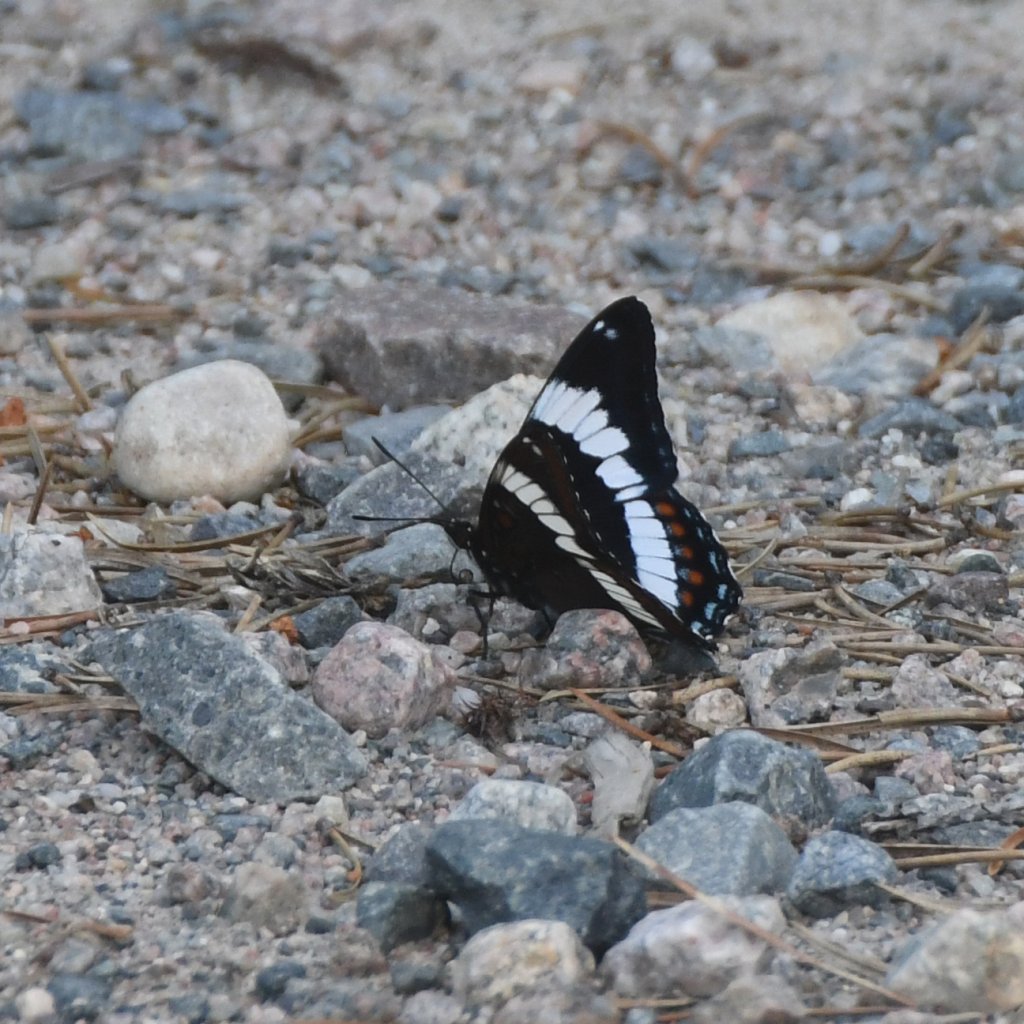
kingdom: Animalia
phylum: Arthropoda
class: Insecta
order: Lepidoptera
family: Nymphalidae
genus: Limenitis
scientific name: Limenitis arthemis
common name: Red-spotted Admiral
